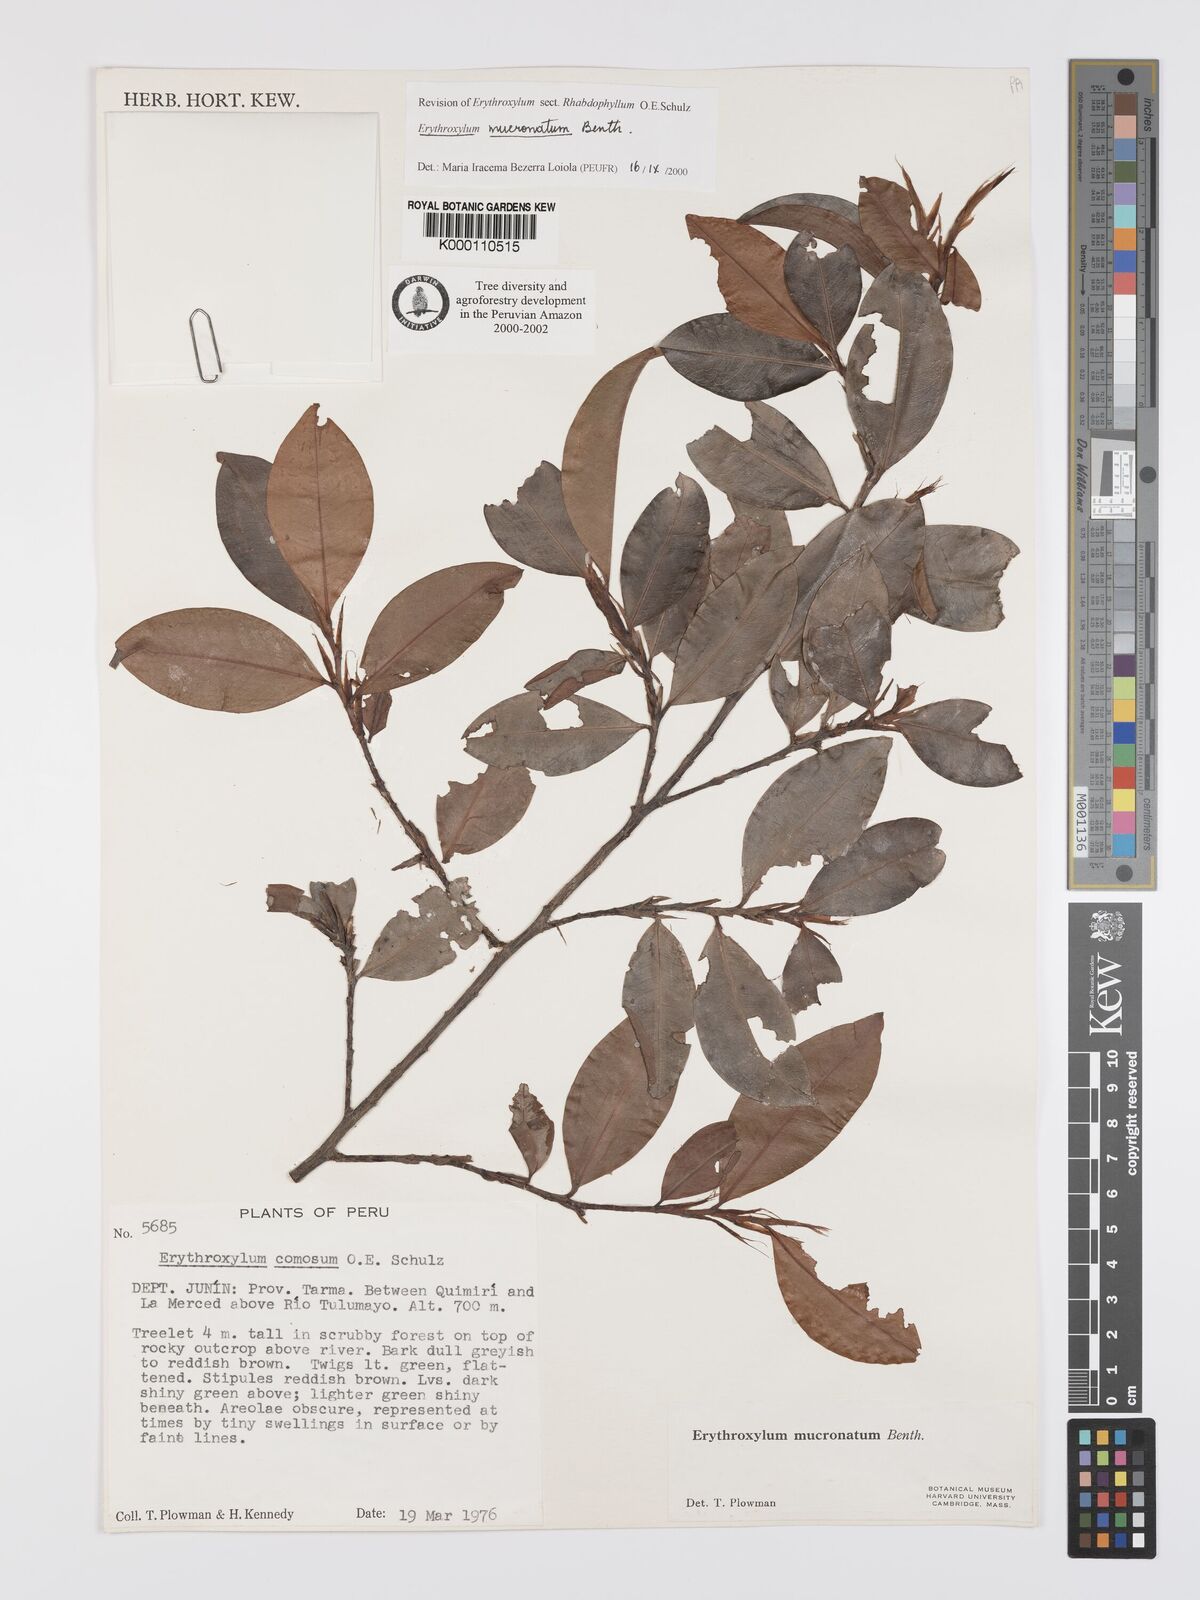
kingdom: Plantae
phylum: Tracheophyta
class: Magnoliopsida
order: Malpighiales
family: Erythroxylaceae
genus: Erythroxylum
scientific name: Erythroxylum mucronatum
